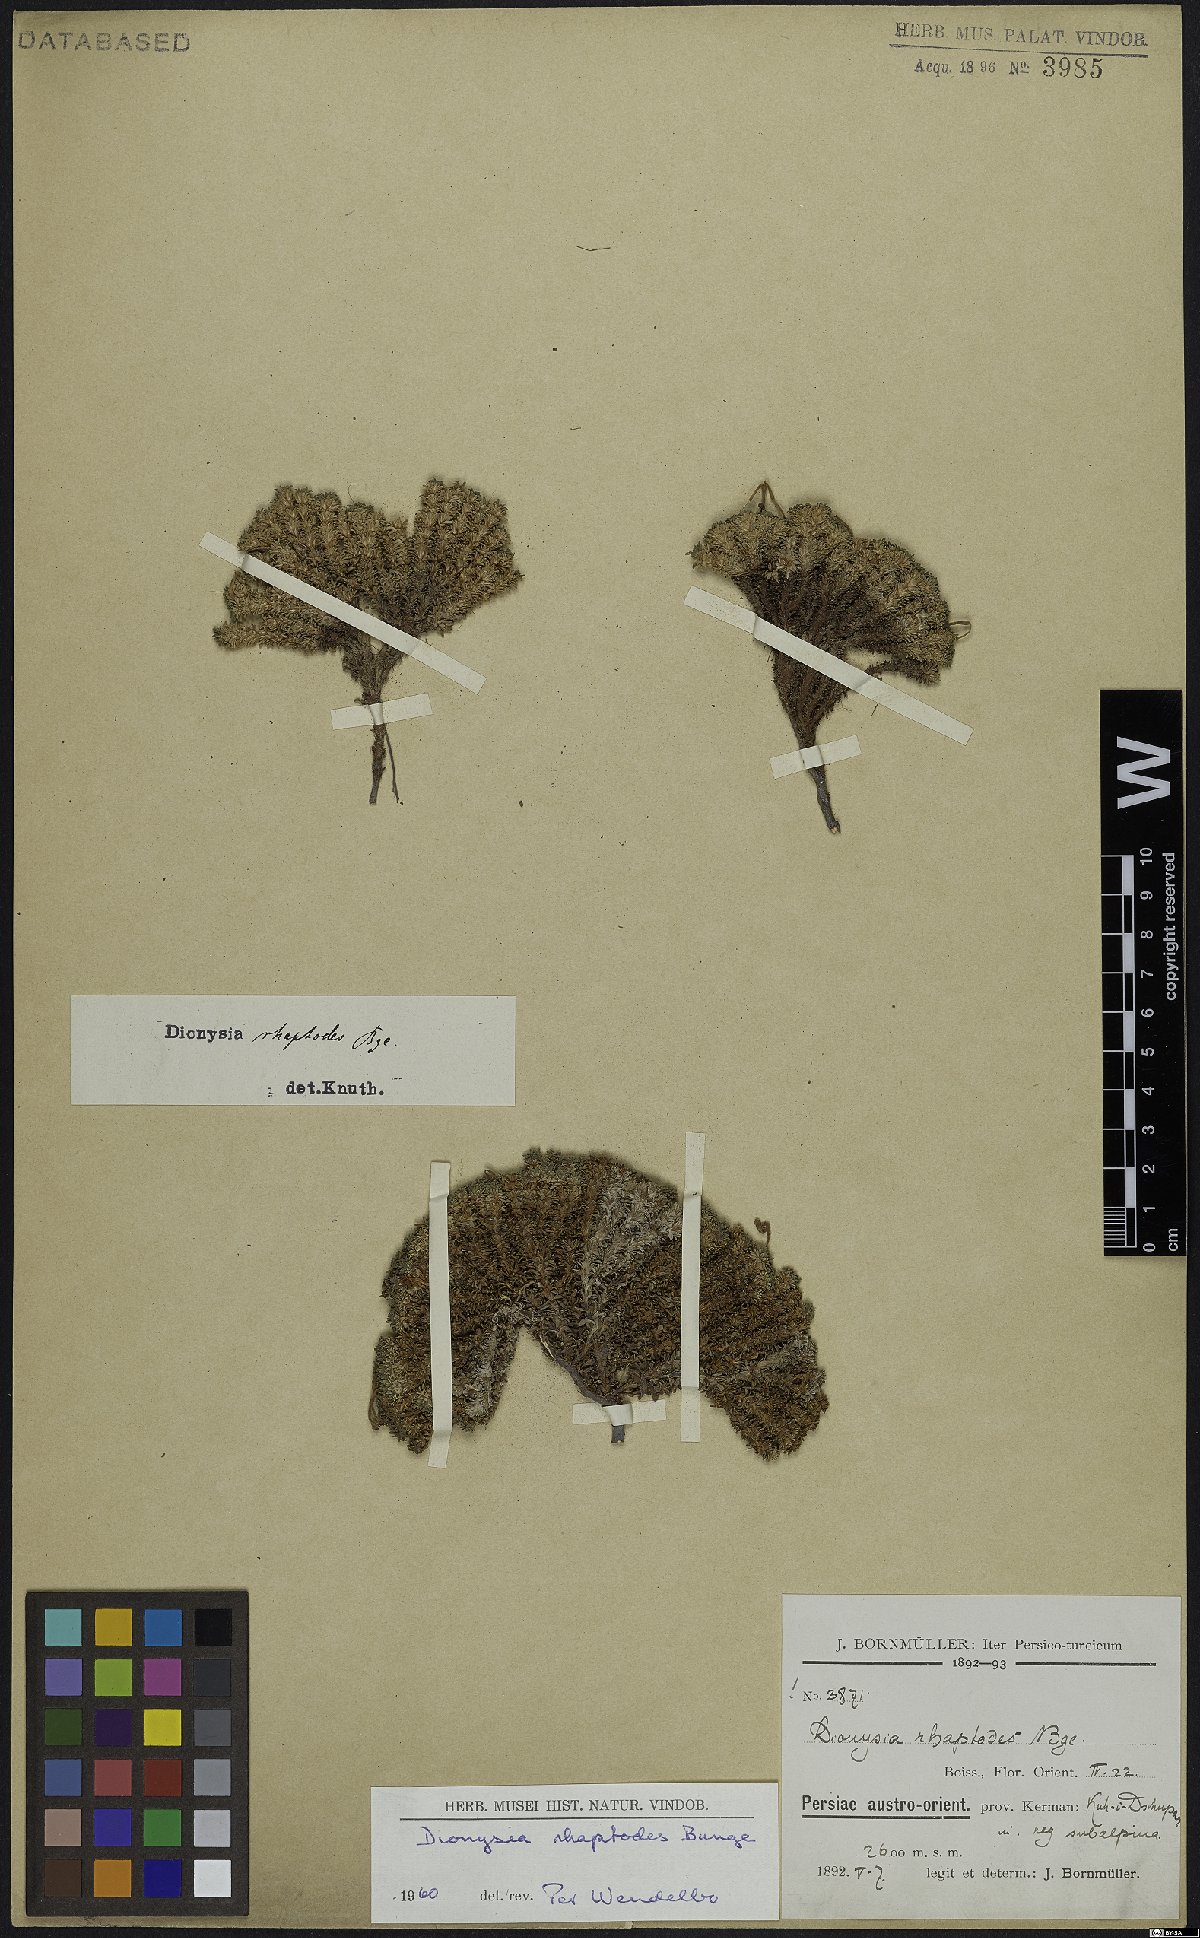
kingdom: Plantae
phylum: Tracheophyta
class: Magnoliopsida
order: Ericales
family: Primulaceae
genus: Dionysia
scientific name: Dionysia rhaptodes
